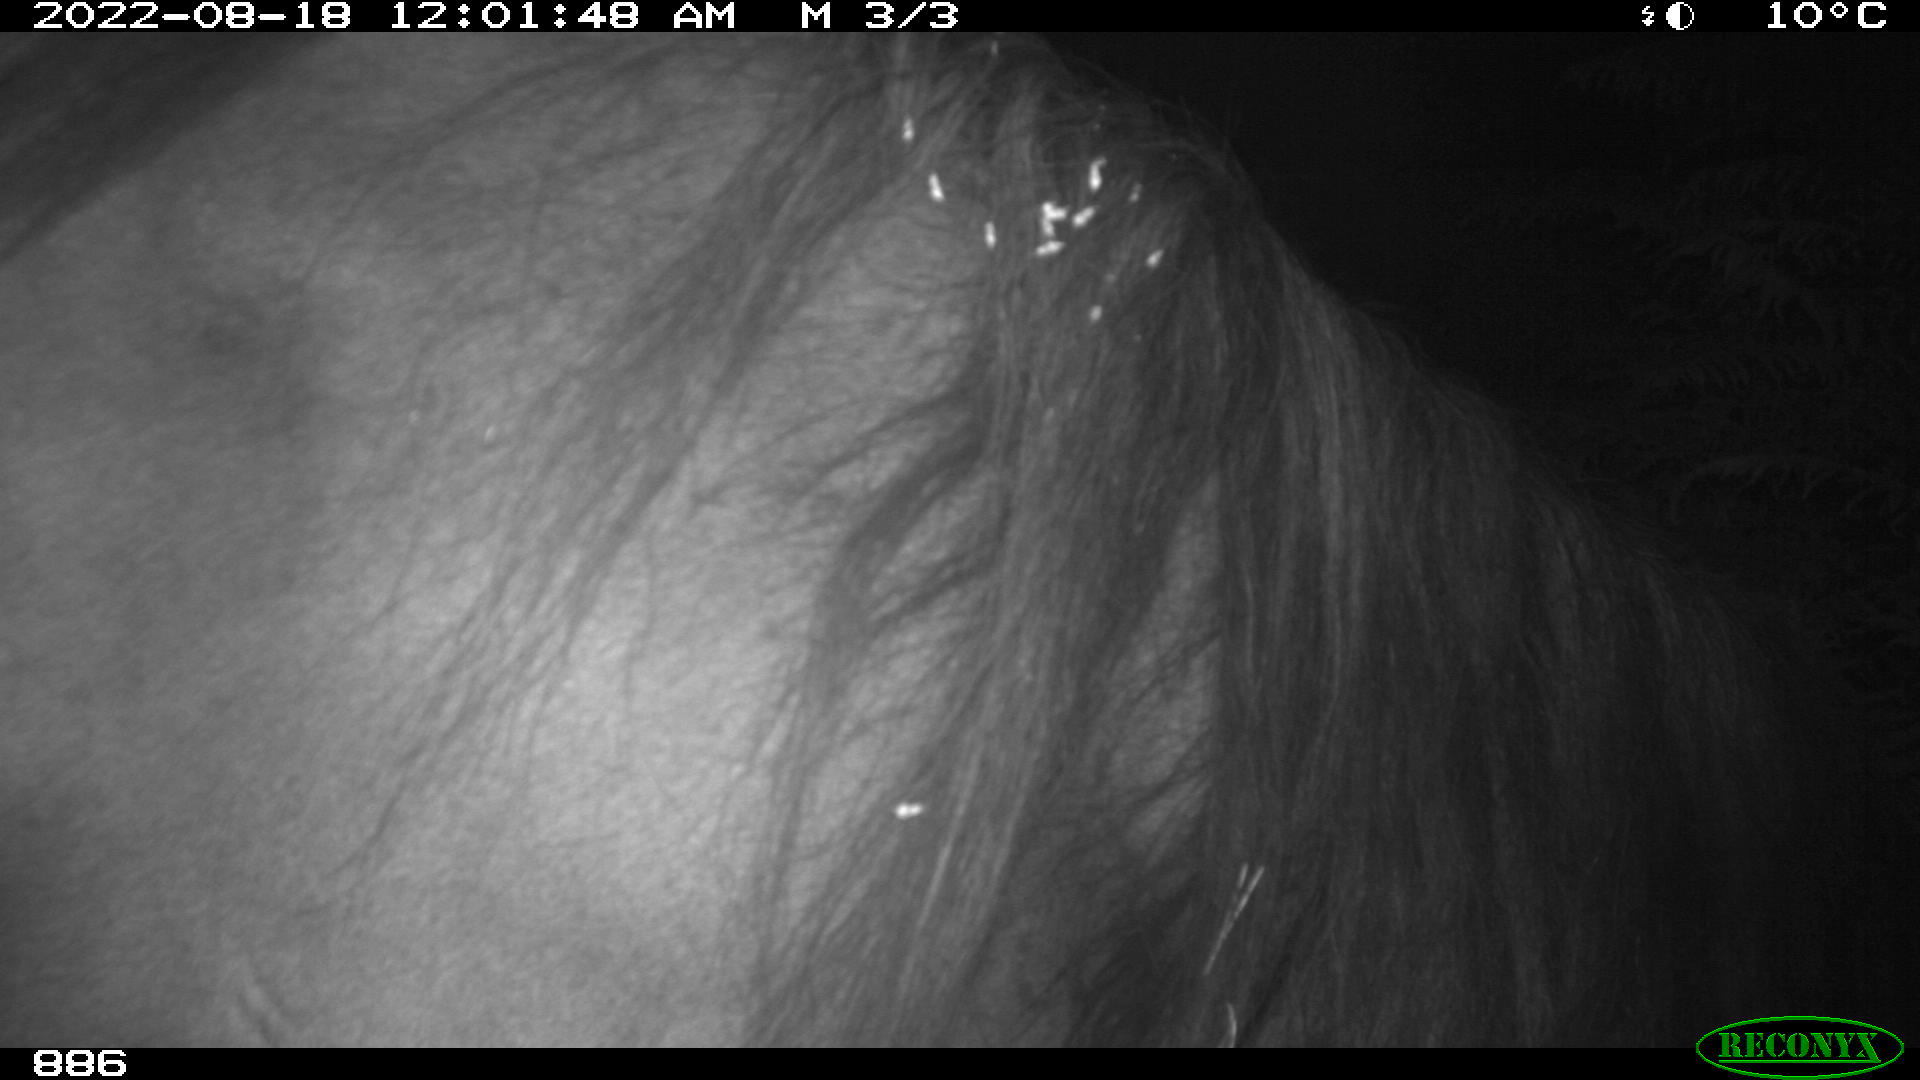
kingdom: Animalia
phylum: Chordata
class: Mammalia
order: Perissodactyla
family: Equidae
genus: Equus
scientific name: Equus caballus
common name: Horse
